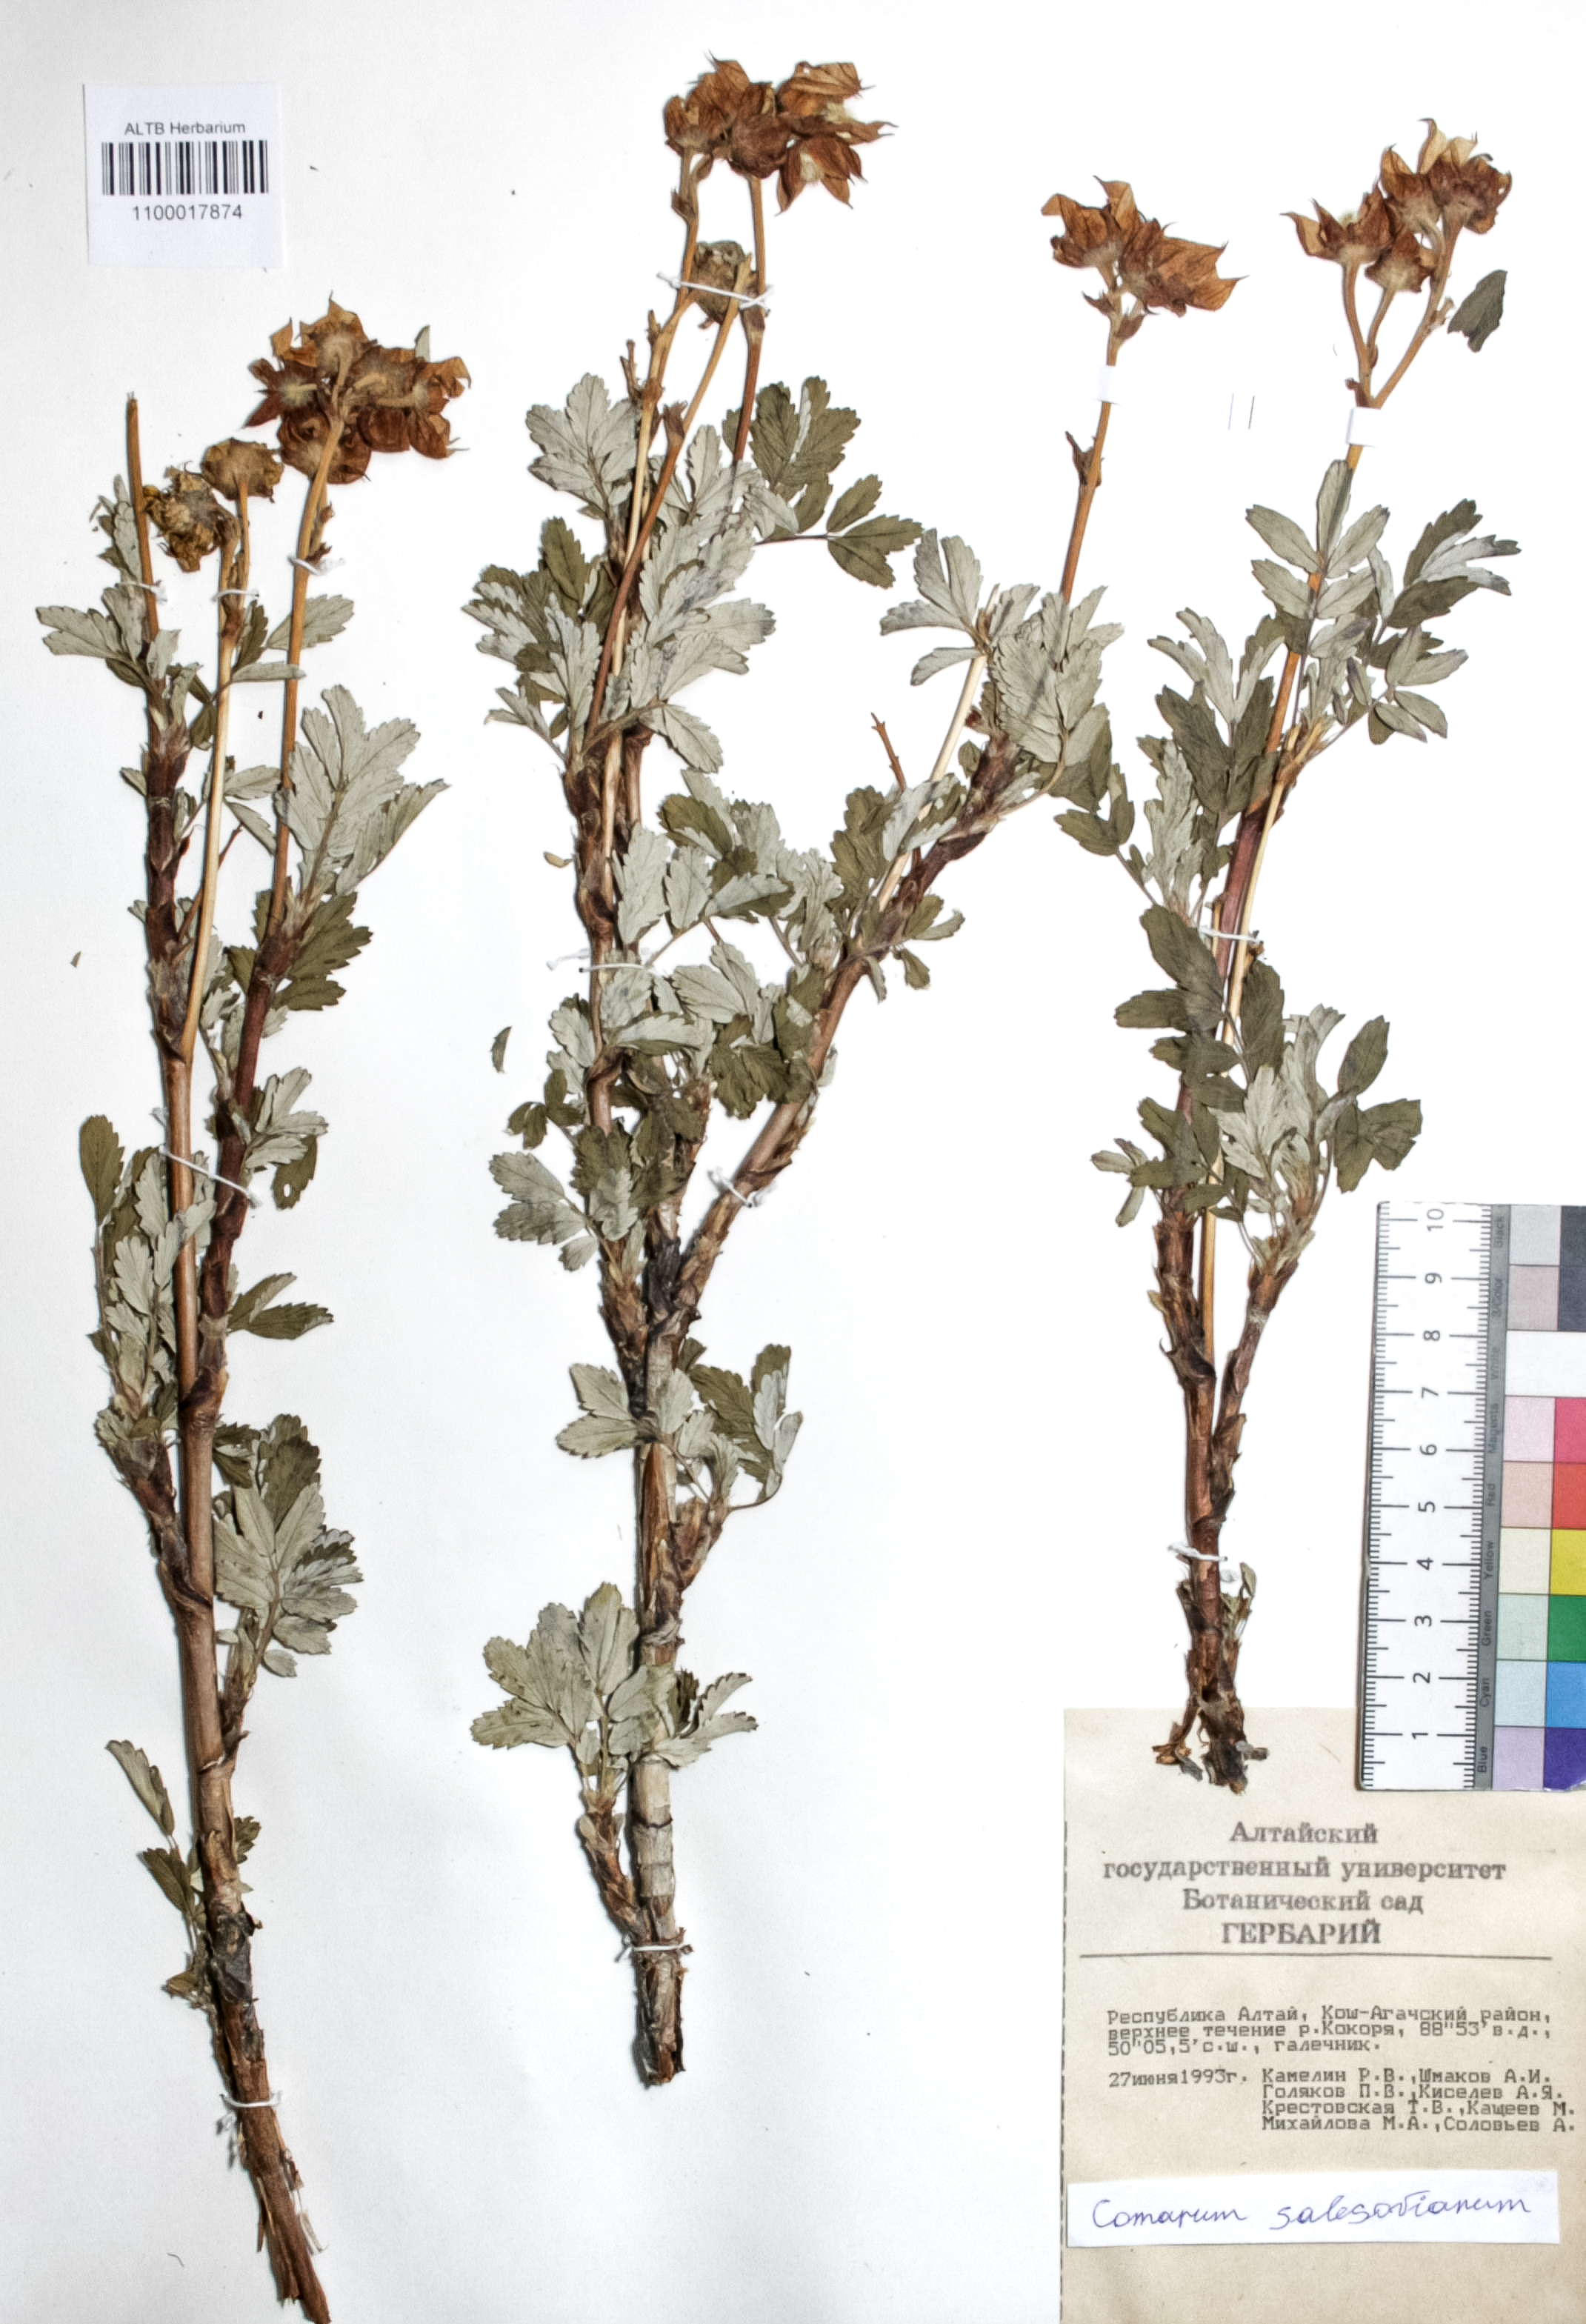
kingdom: Plantae
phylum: Tracheophyta
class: Magnoliopsida
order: Rosales
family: Rosaceae
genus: Farinopsis
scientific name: Farinopsis salesoviana
